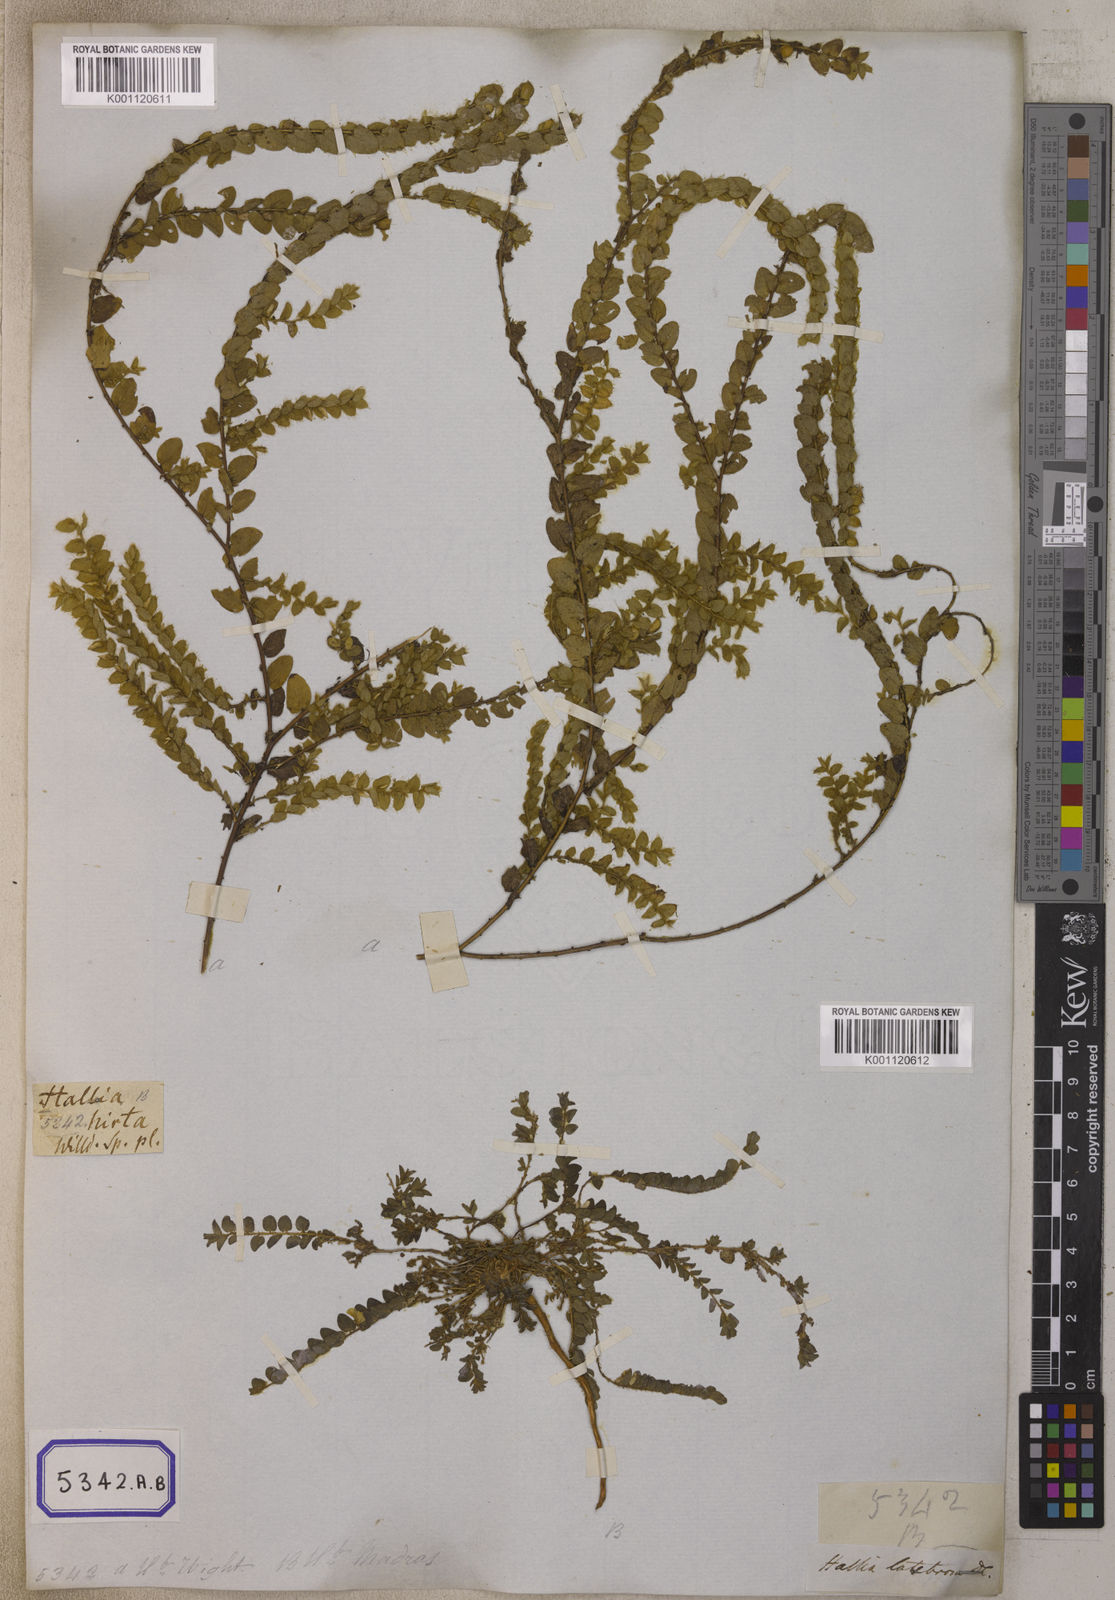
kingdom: Plantae
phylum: Tracheophyta
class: Magnoliopsida
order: Fabales
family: Fabaceae
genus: Crotalaria
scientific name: Crotalaria hebecarpa
